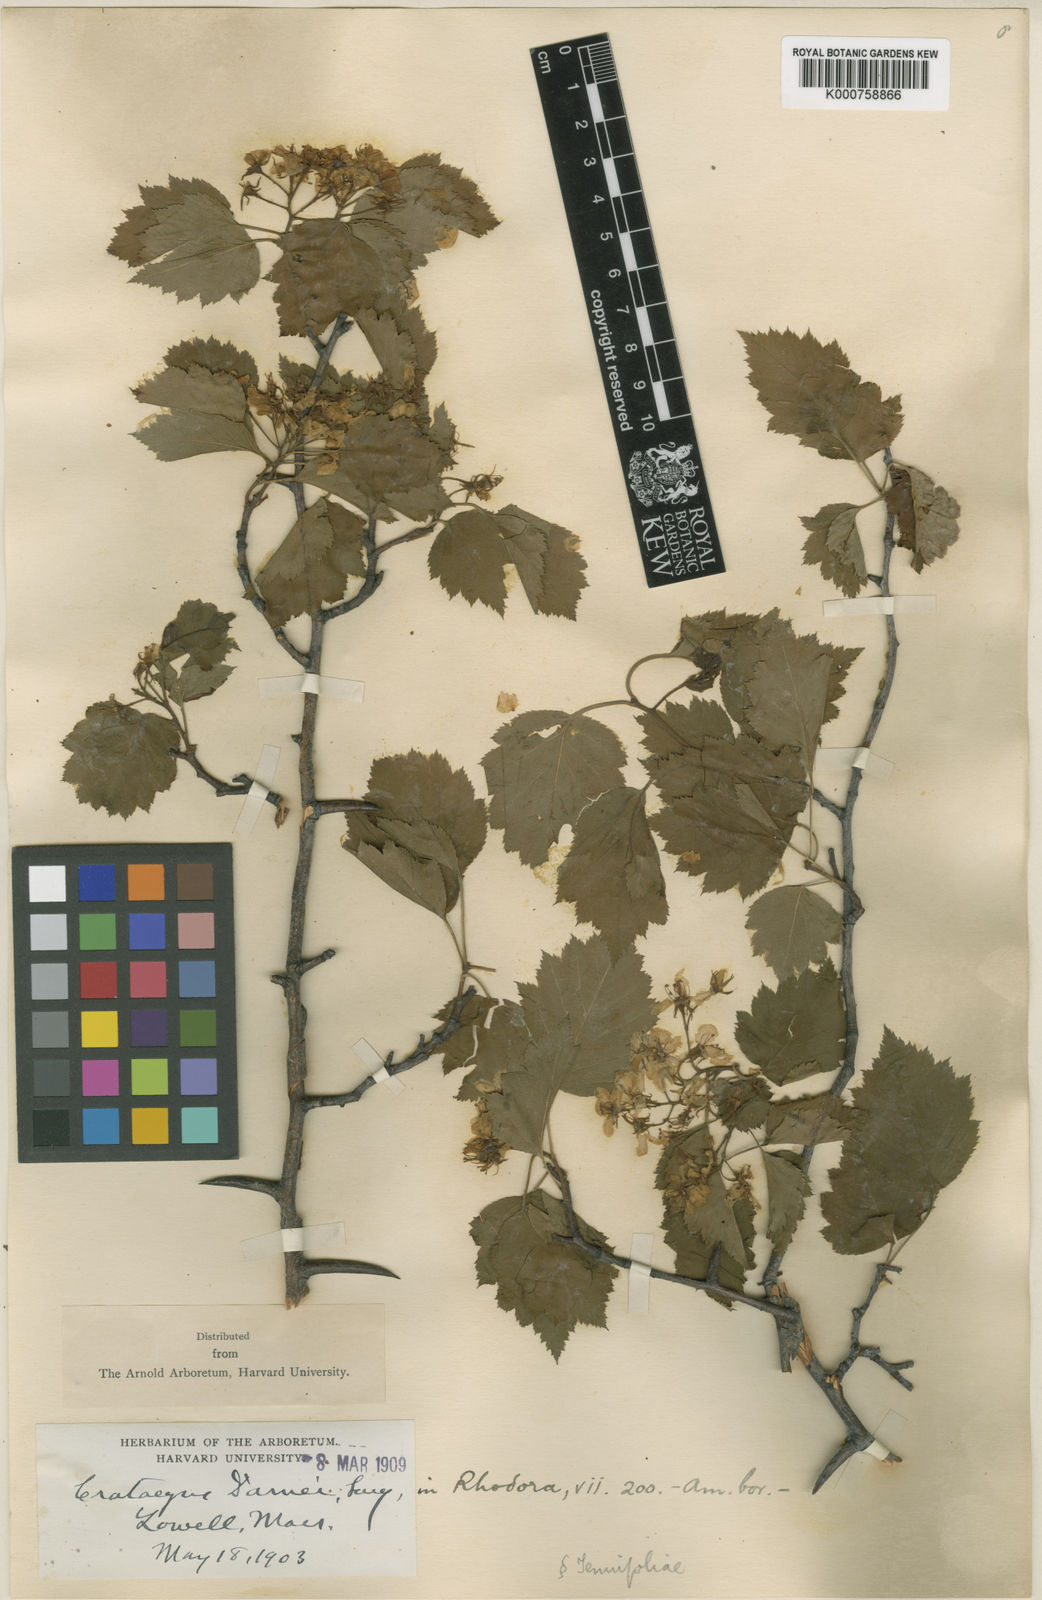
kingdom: Plantae
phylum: Tracheophyta
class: Magnoliopsida
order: Rosales
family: Rosaceae
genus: Crataegus
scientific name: Crataegus damei
